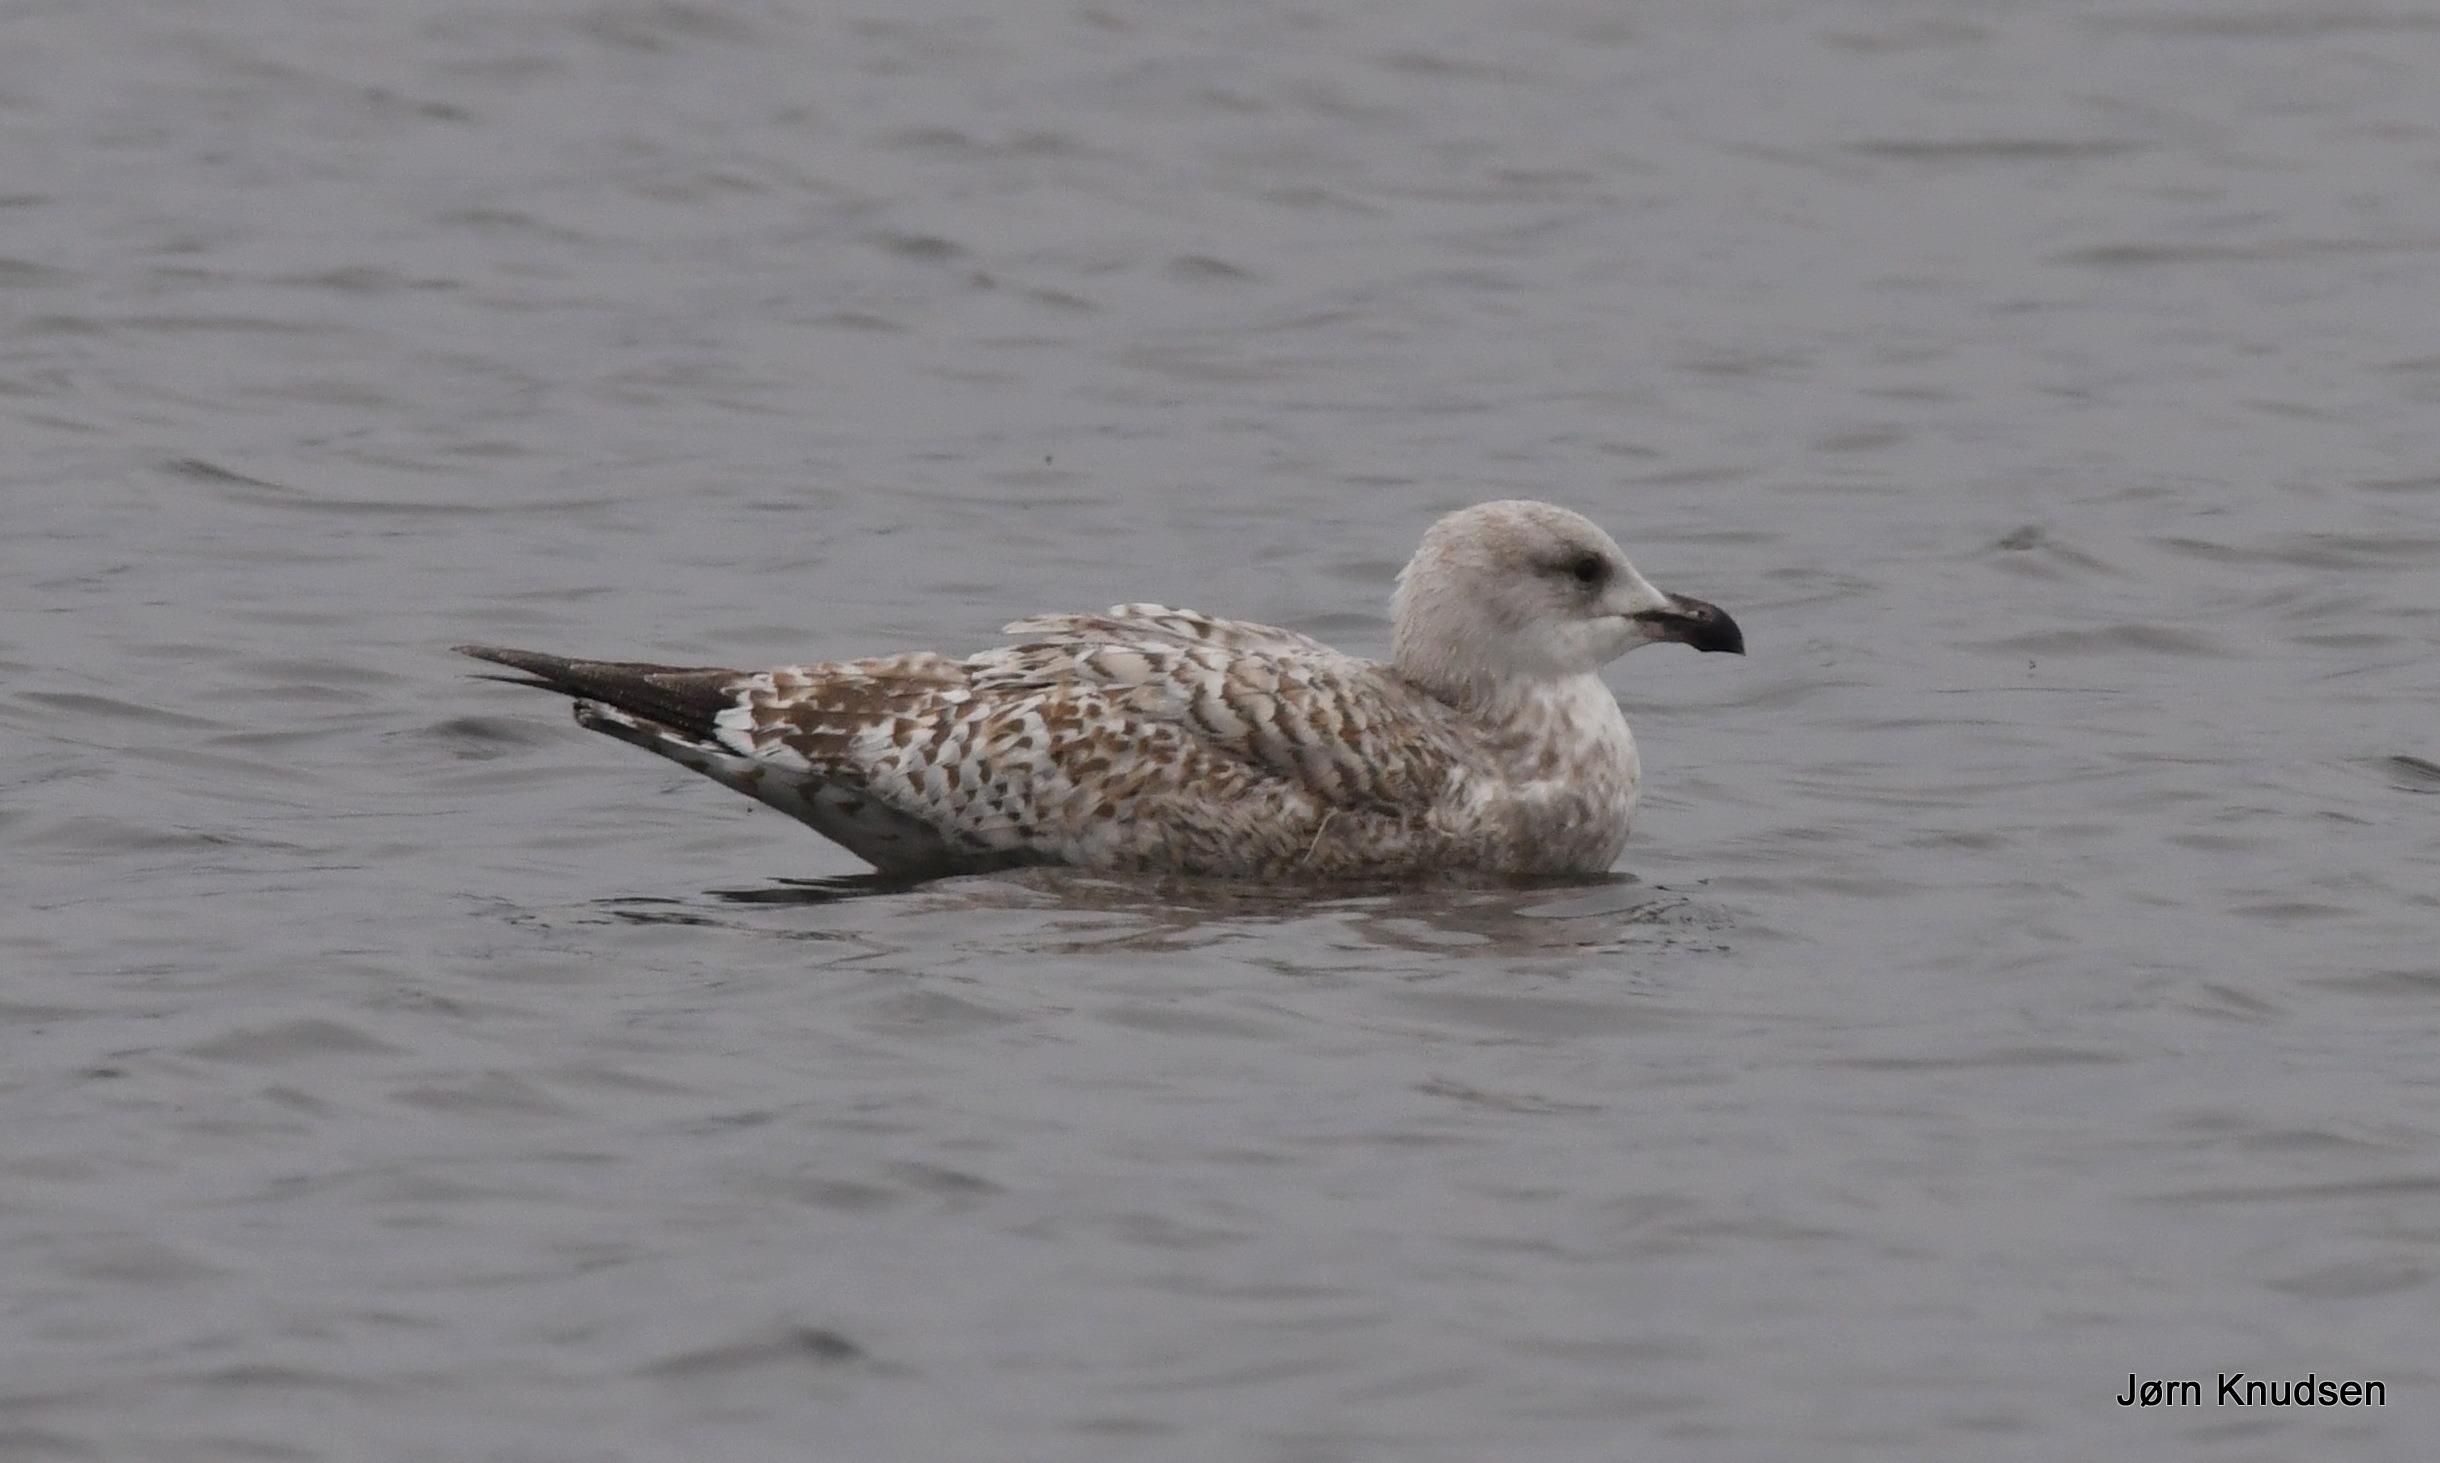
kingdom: Animalia
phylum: Chordata
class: Aves
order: Charadriiformes
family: Laridae
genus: Larus
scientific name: Larus argentatus
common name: Sølvmåge
